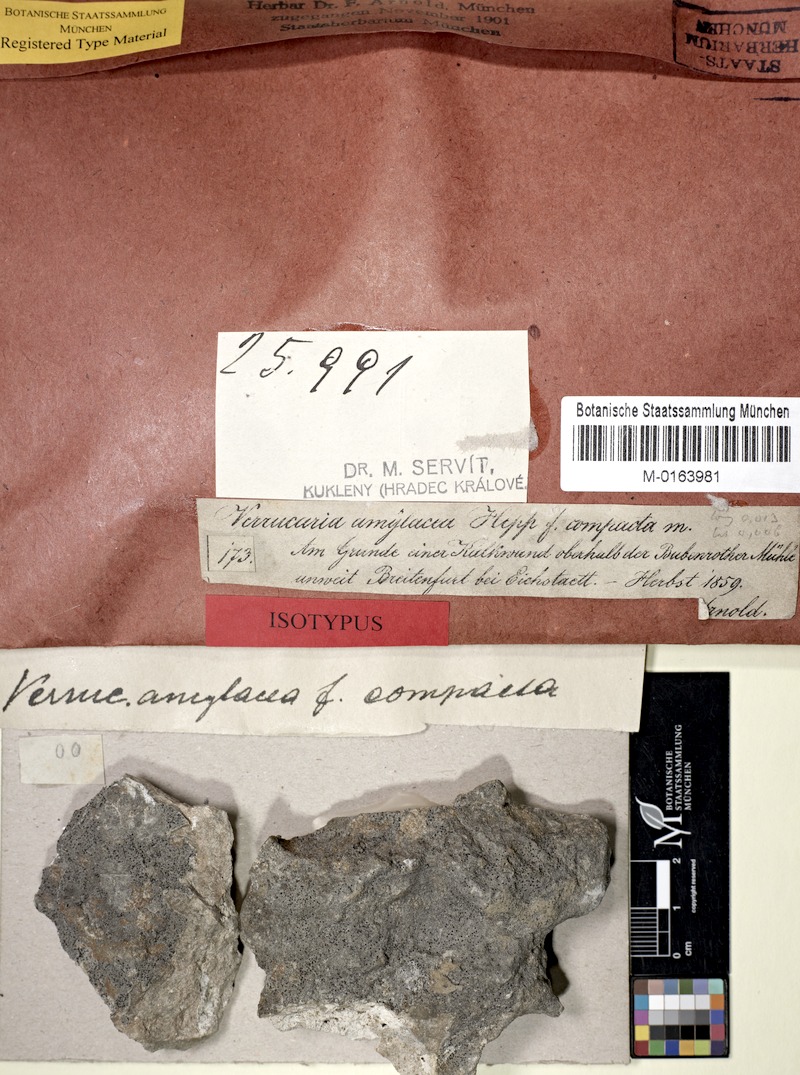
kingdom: Fungi
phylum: Ascomycota
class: Eurotiomycetes
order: Verrucariales
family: Verrucariaceae
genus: Verrucaria
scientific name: Verrucaria amylacea
